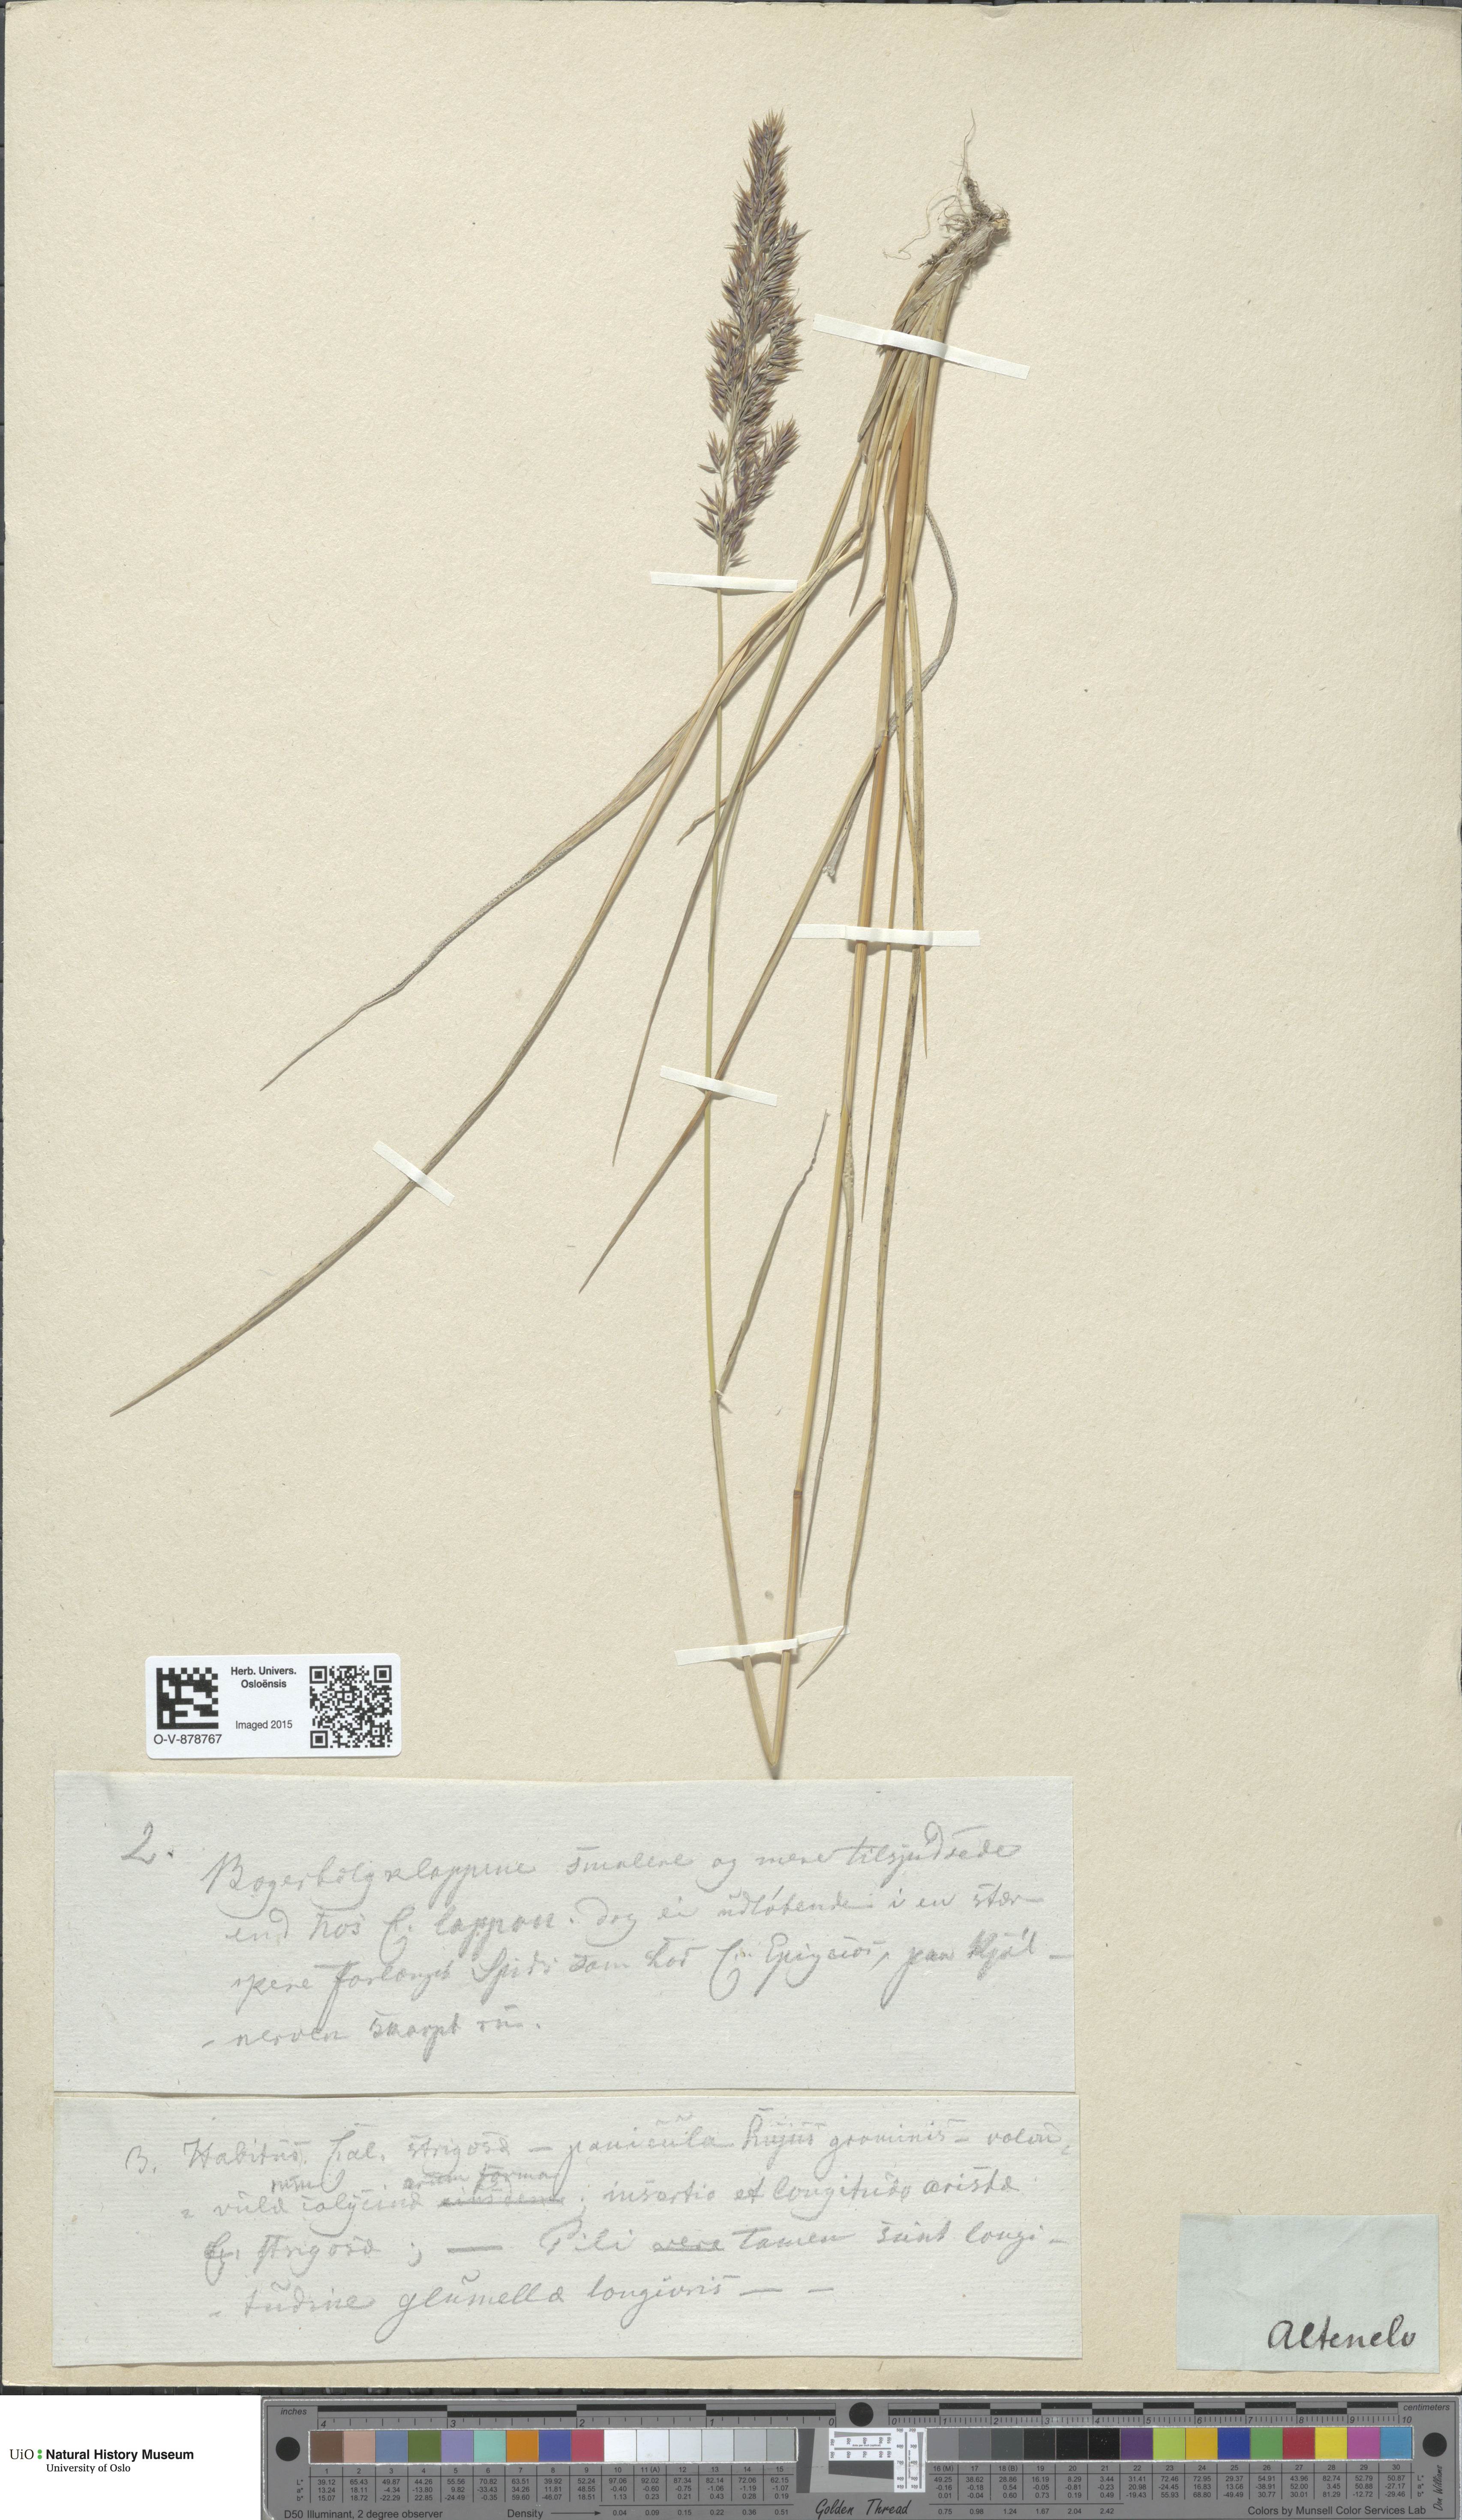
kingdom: Plantae
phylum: Tracheophyta
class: Liliopsida
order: Poales
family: Poaceae
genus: Calamagrostis
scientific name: Calamagrostis strigosa
